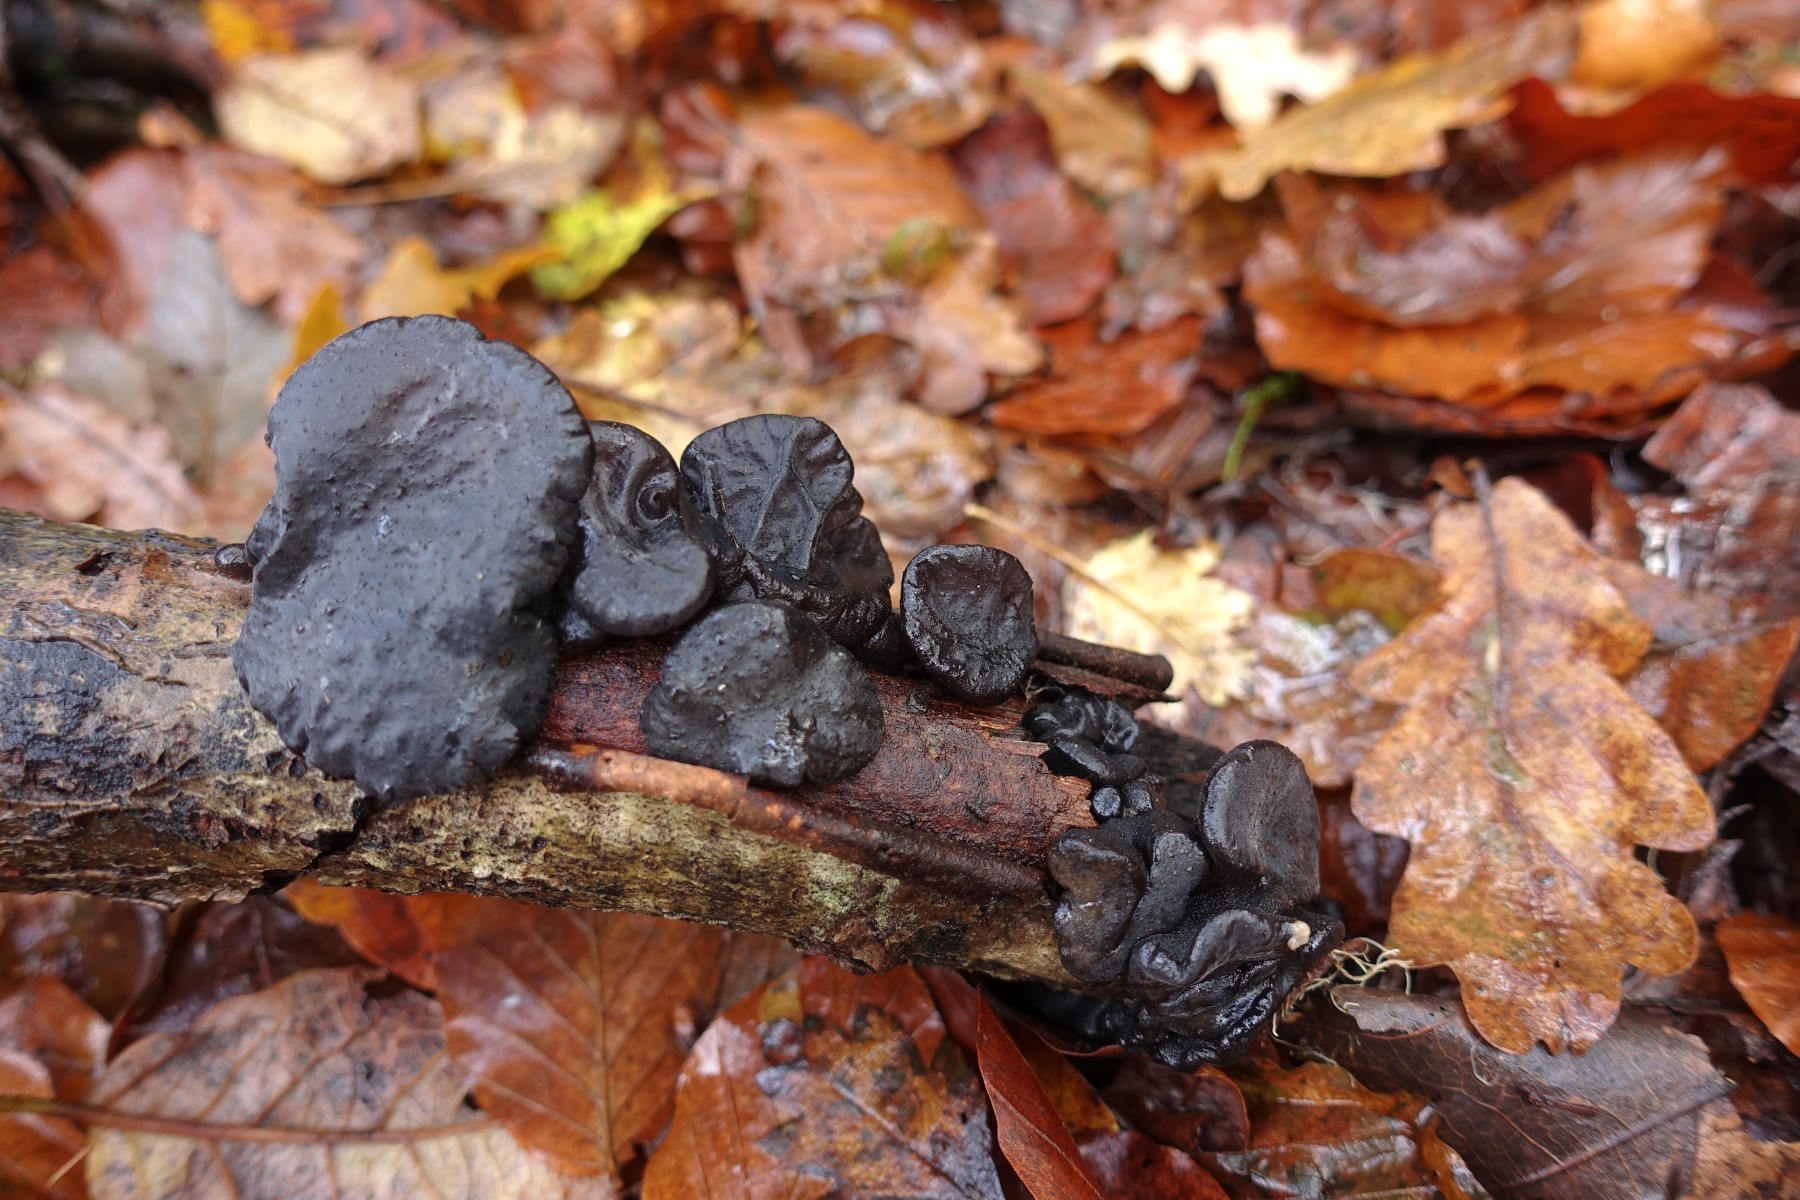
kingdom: Fungi
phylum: Basidiomycota
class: Agaricomycetes
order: Auriculariales
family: Auriculariaceae
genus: Exidia
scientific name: Exidia glandulosa
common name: ege-bævretop
